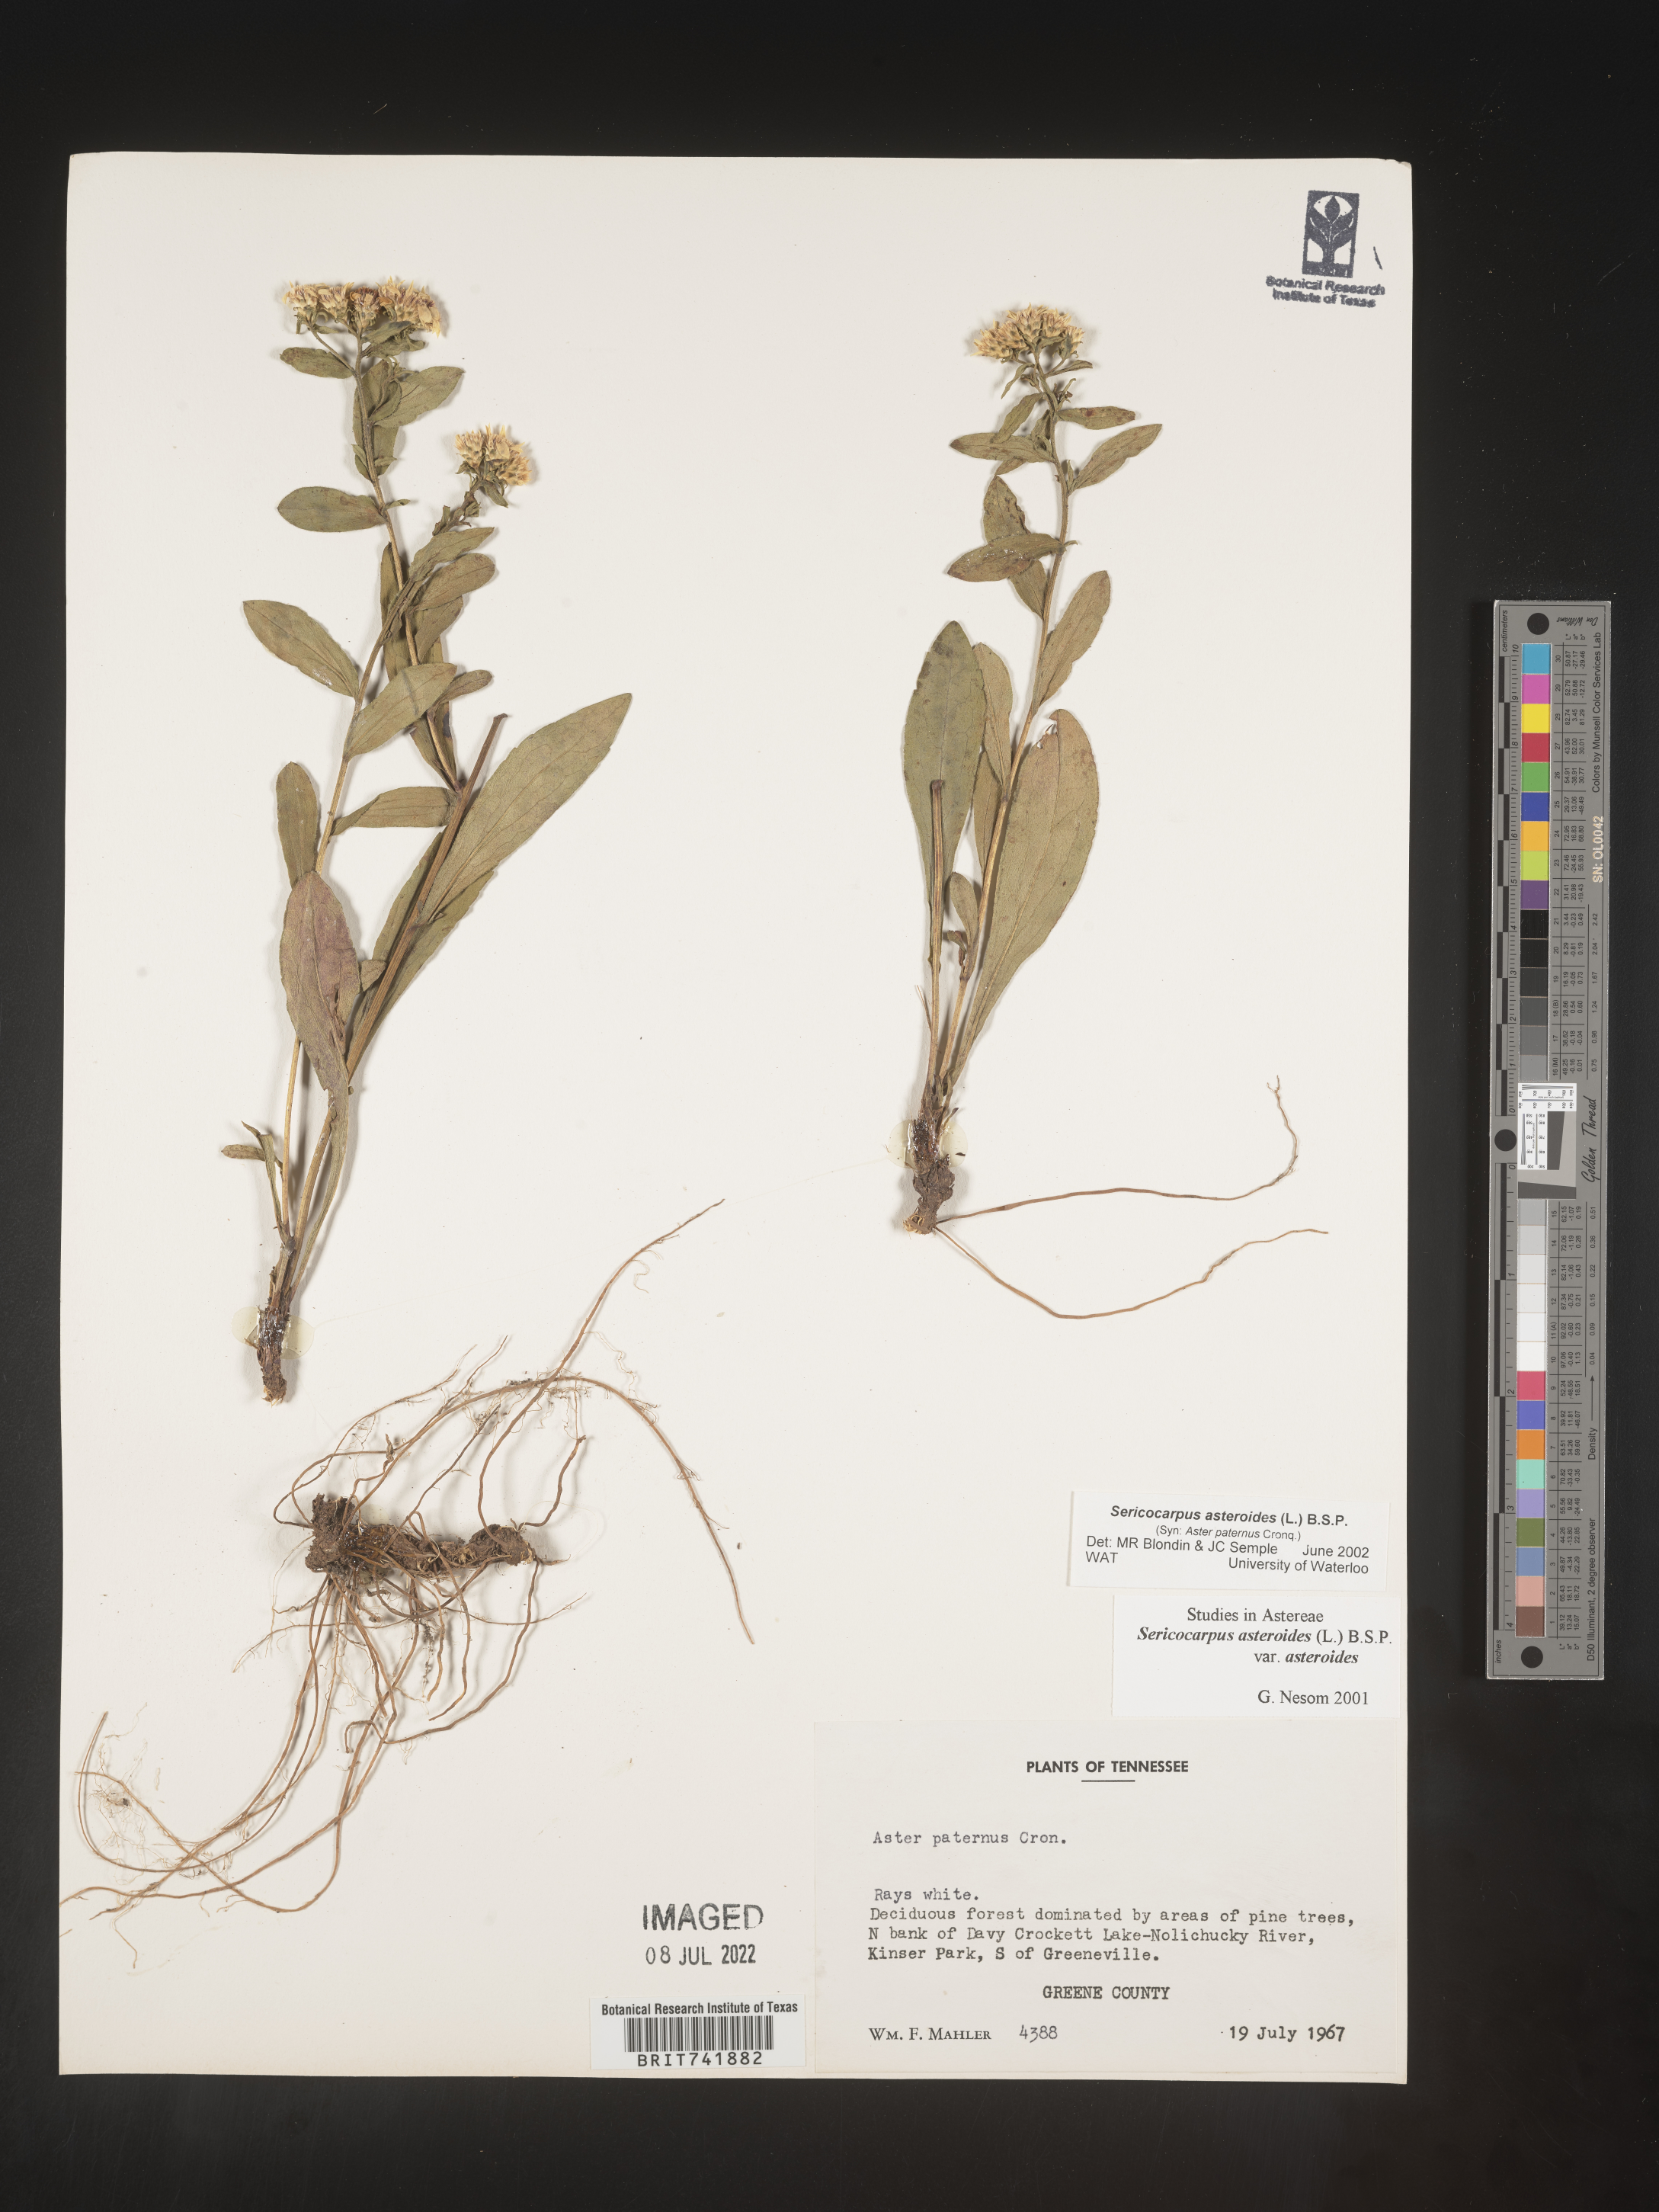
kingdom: Plantae
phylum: Tracheophyta
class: Magnoliopsida
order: Asterales
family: Asteraceae
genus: Sericocarpus
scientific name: Sericocarpus asteroides
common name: Toothed white-top aster
